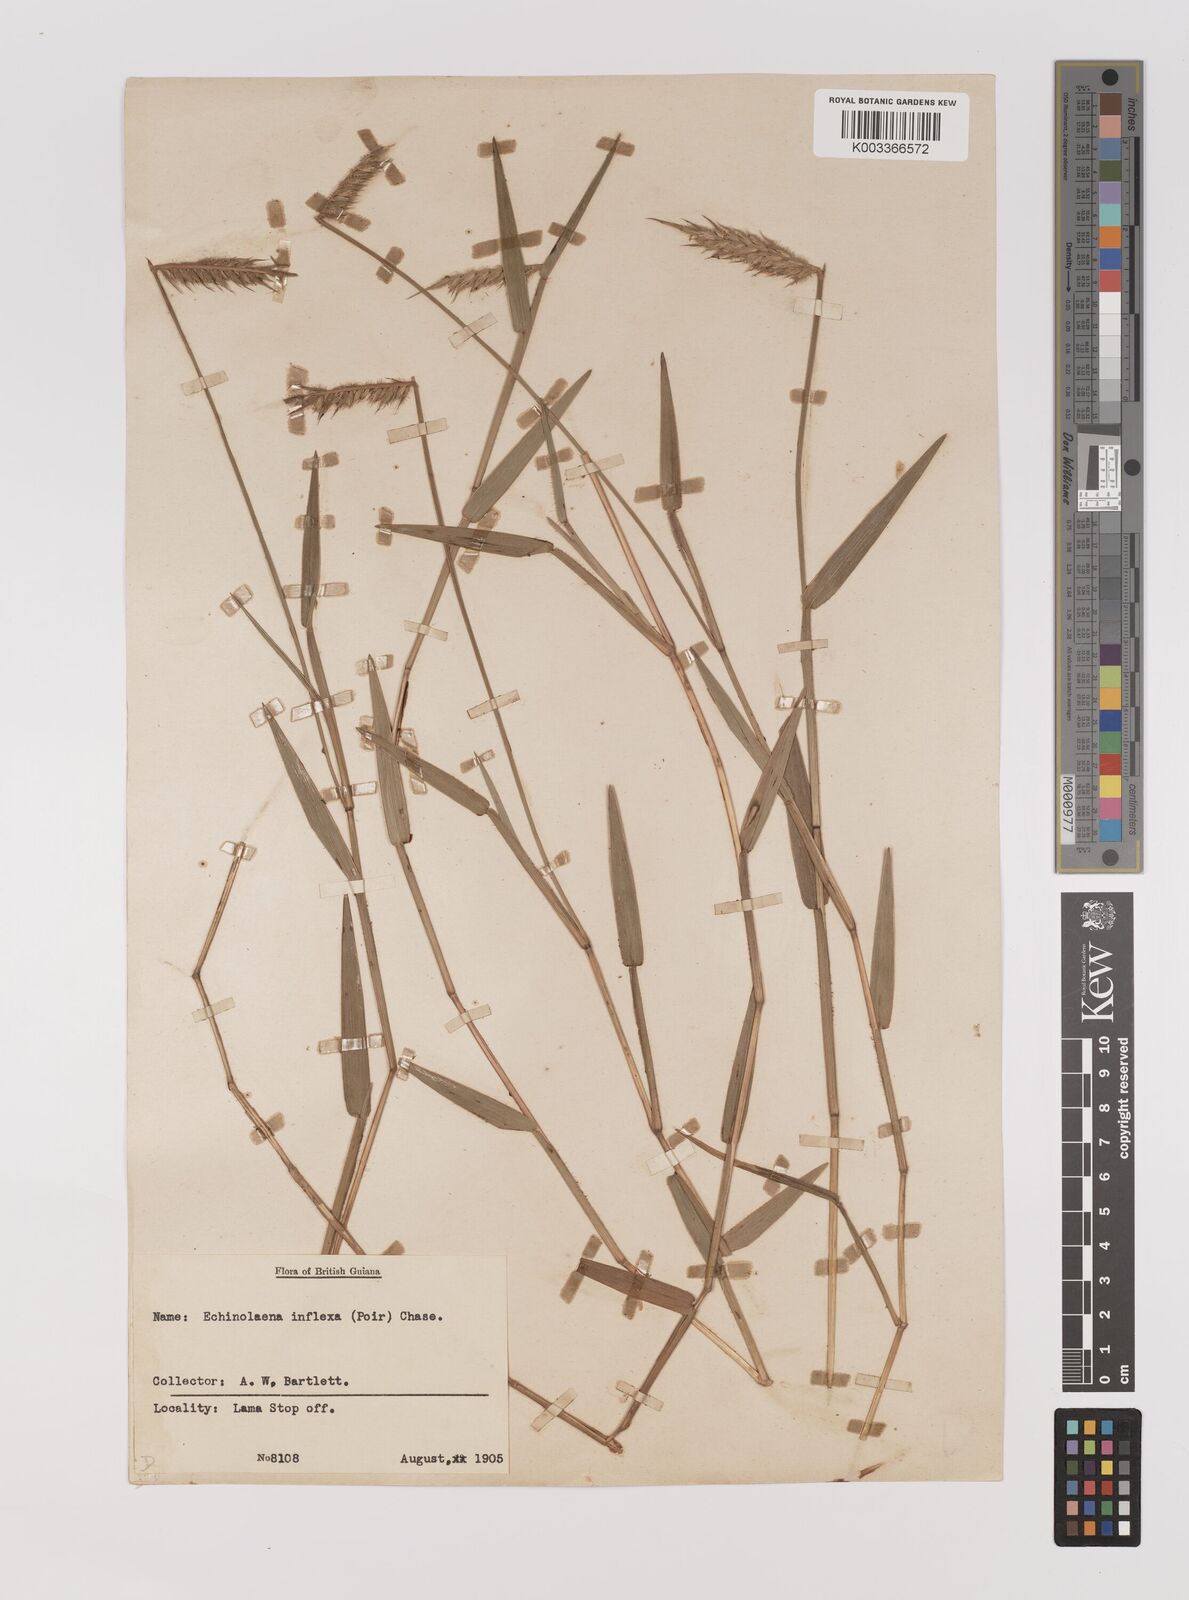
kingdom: Plantae
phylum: Tracheophyta
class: Liliopsida
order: Poales
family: Poaceae
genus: Echinolaena
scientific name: Echinolaena inflexa
